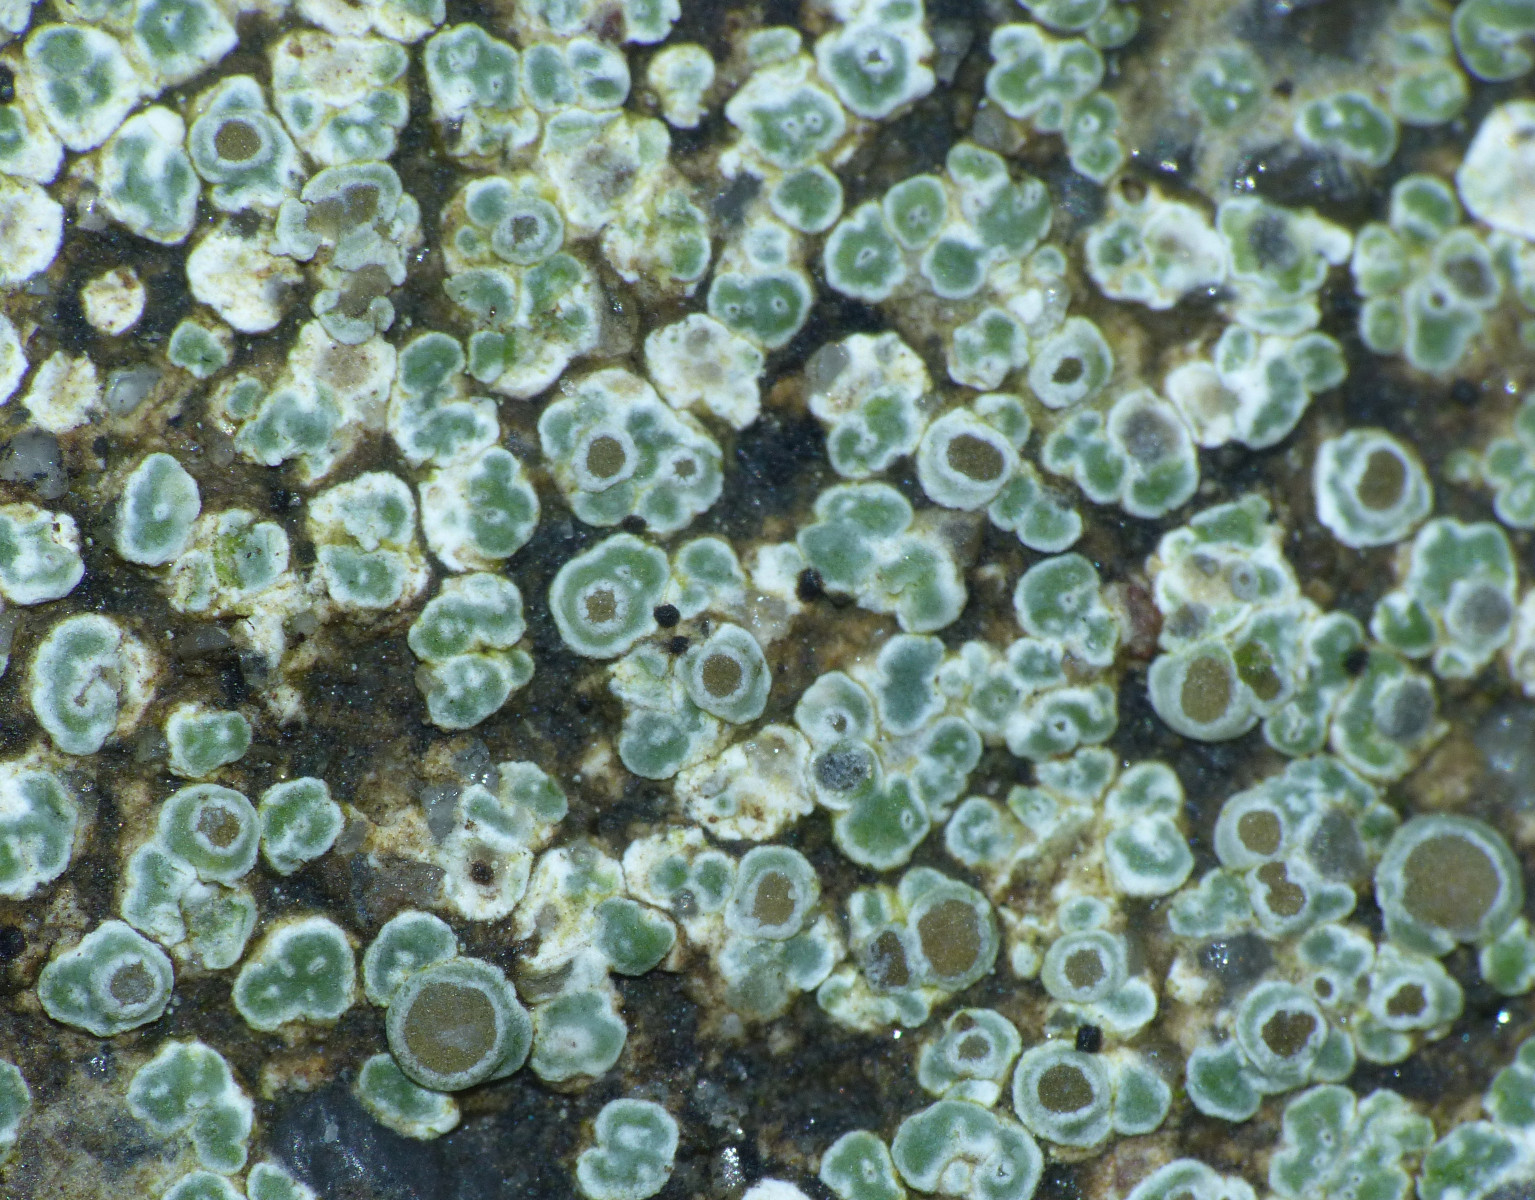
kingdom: Fungi
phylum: Ascomycota
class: Lecanoromycetes
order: Pertusariales
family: Megasporaceae
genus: Circinaria
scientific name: Circinaria contorta
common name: indviklet hulskivelav
